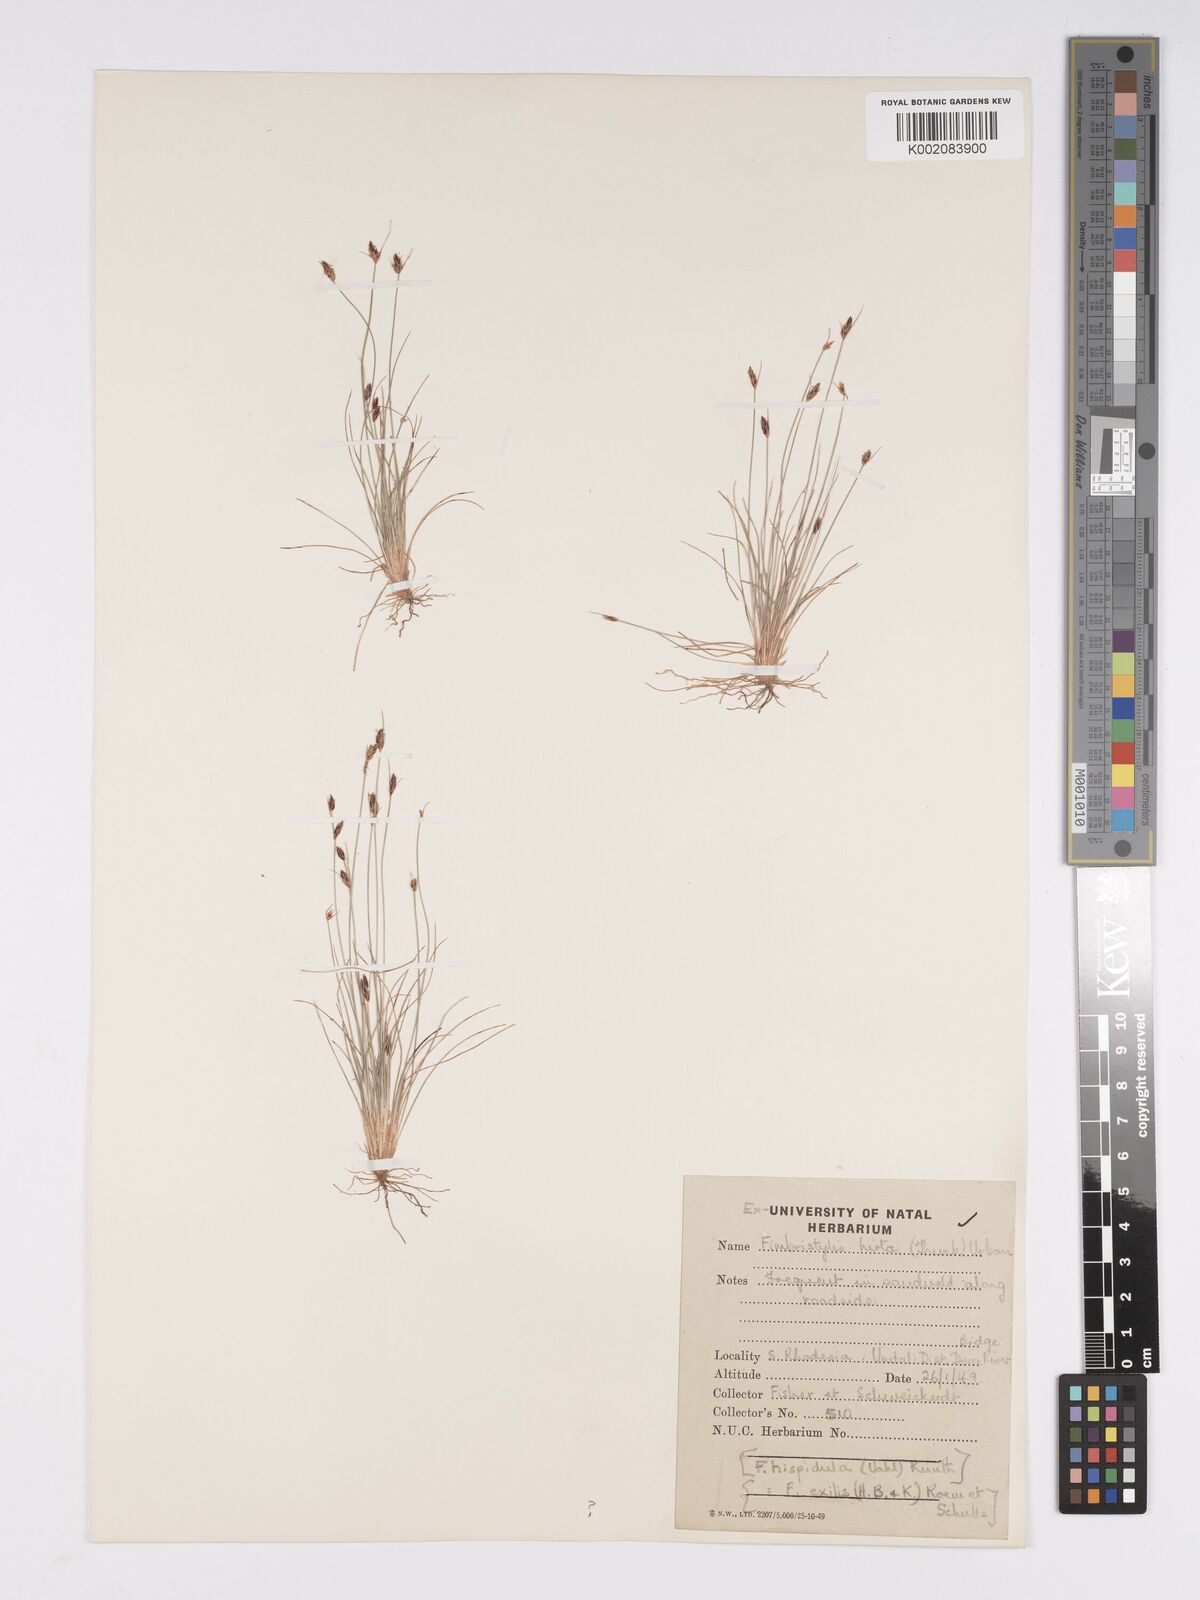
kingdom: Plantae
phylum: Tracheophyta
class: Liliopsida
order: Poales
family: Cyperaceae
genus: Bulbostylis
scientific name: Bulbostylis hispidula
